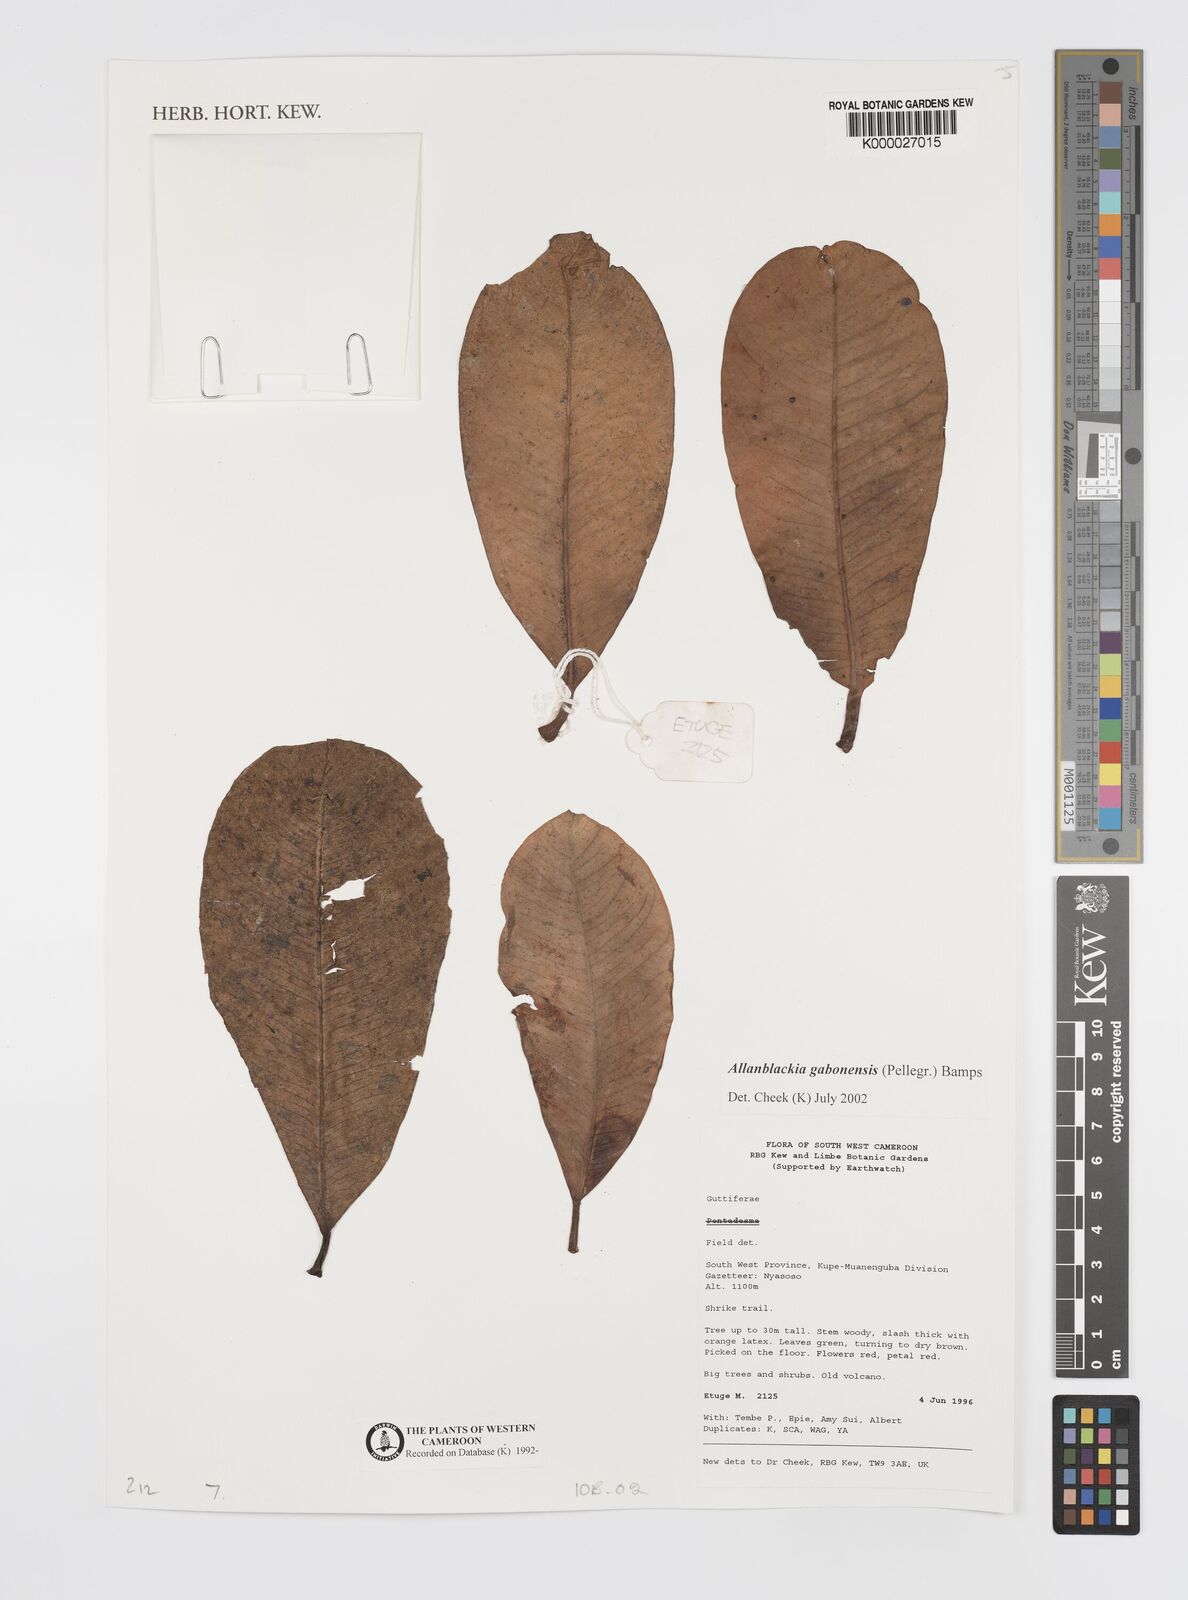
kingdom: Plantae
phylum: Tracheophyta
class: Magnoliopsida
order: Malpighiales
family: Clusiaceae
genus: Allanblackia
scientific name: Allanblackia gabonensis
